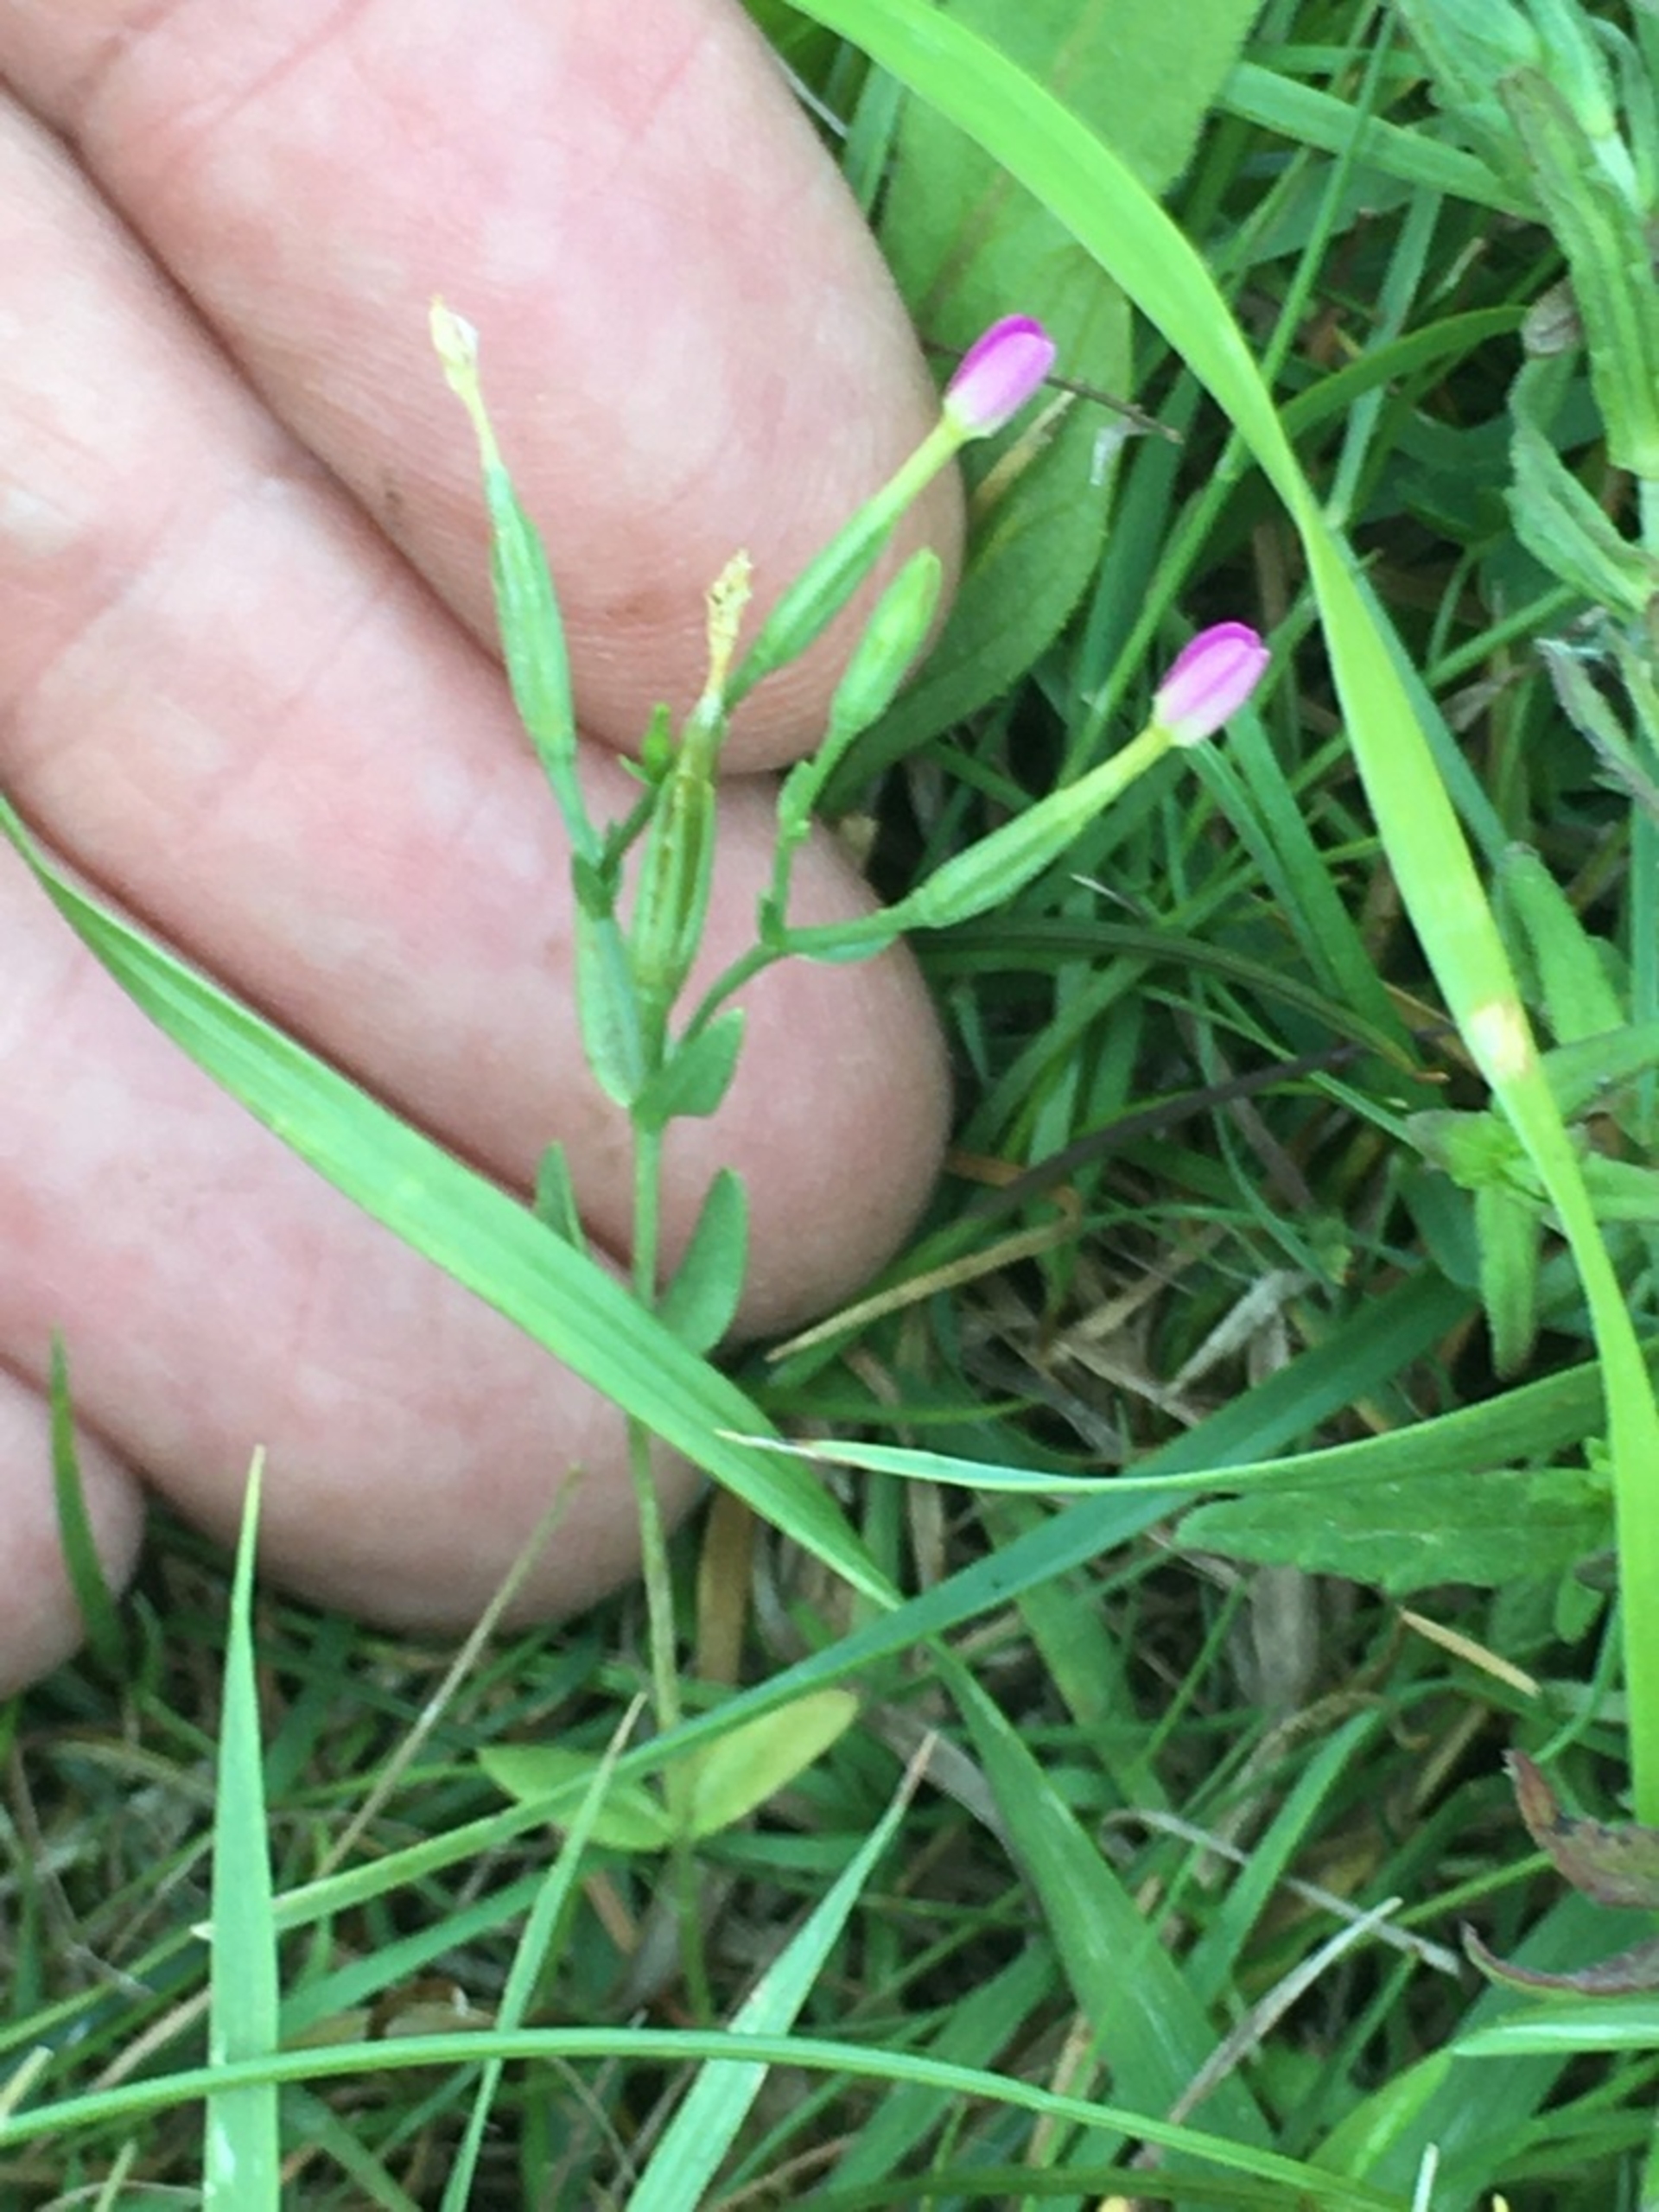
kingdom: Plantae
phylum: Tracheophyta
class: Magnoliopsida
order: Gentianales
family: Gentianaceae
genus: Centaurium
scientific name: Centaurium pulchellum
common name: Liden tusindgylden
